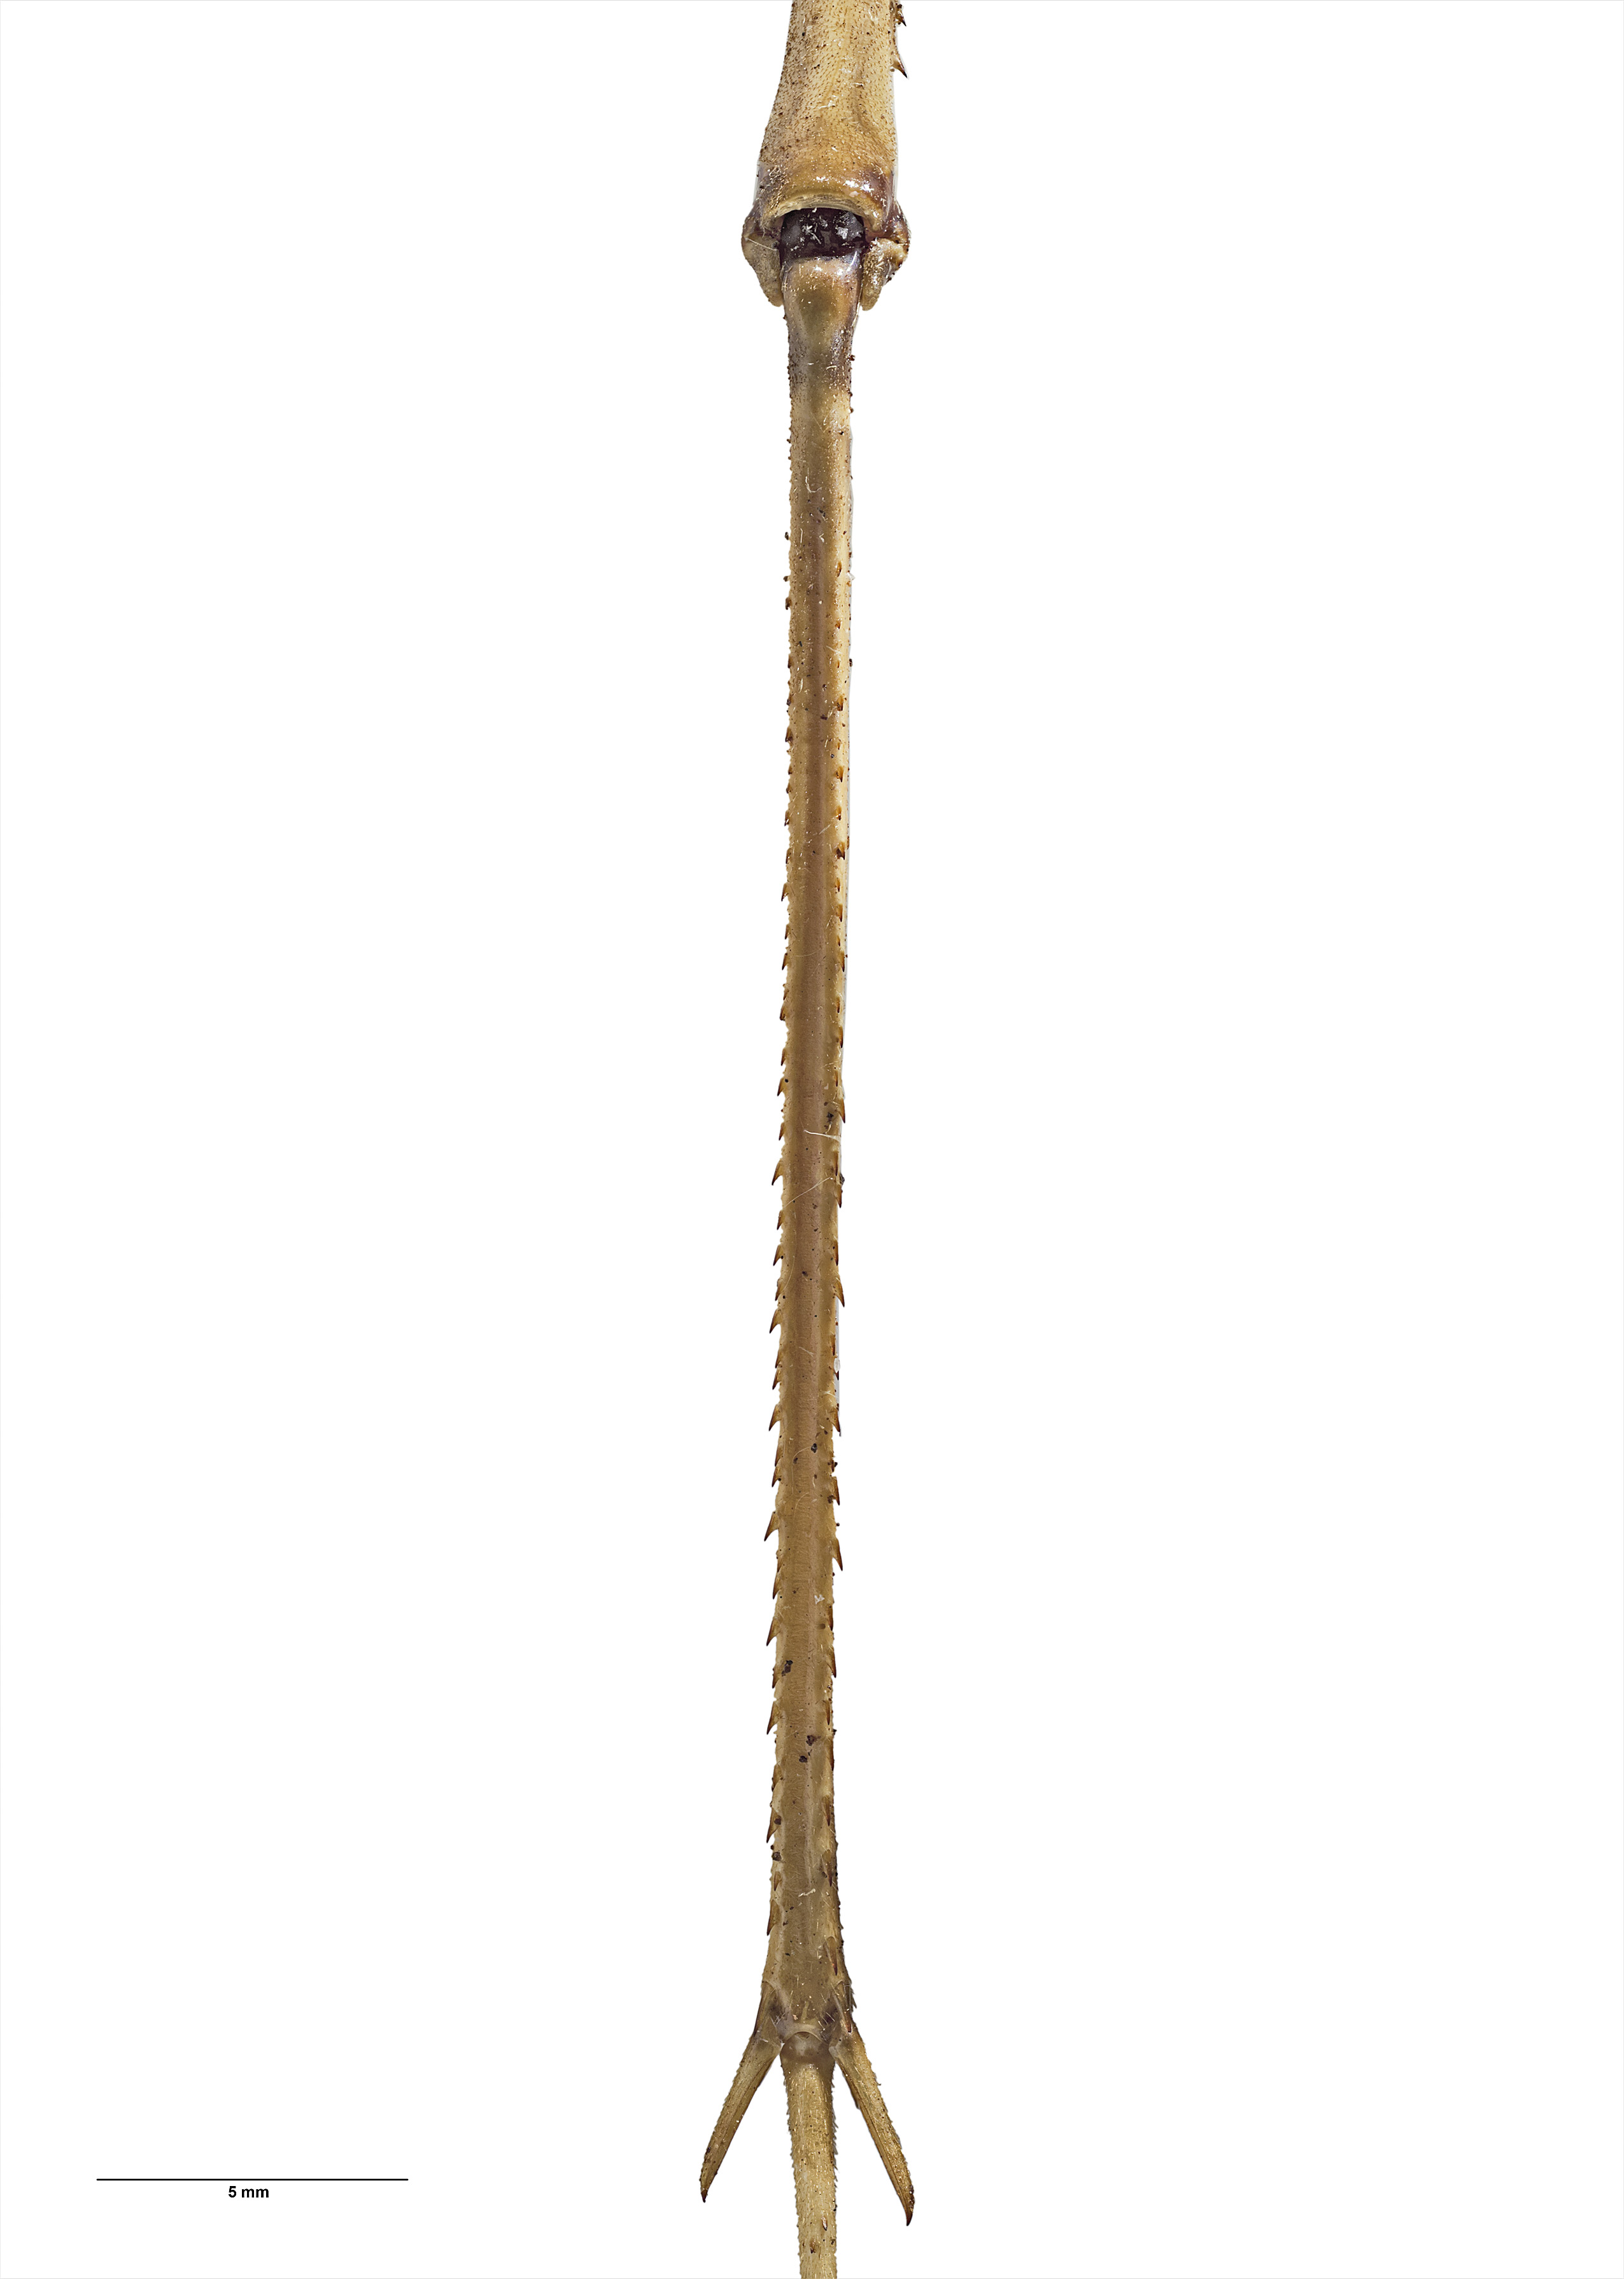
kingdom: Animalia
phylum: Arthropoda
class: Insecta
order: Orthoptera
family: Rhaphidophoridae
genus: Pachyrhamma
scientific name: Pachyrhamma unicolor
